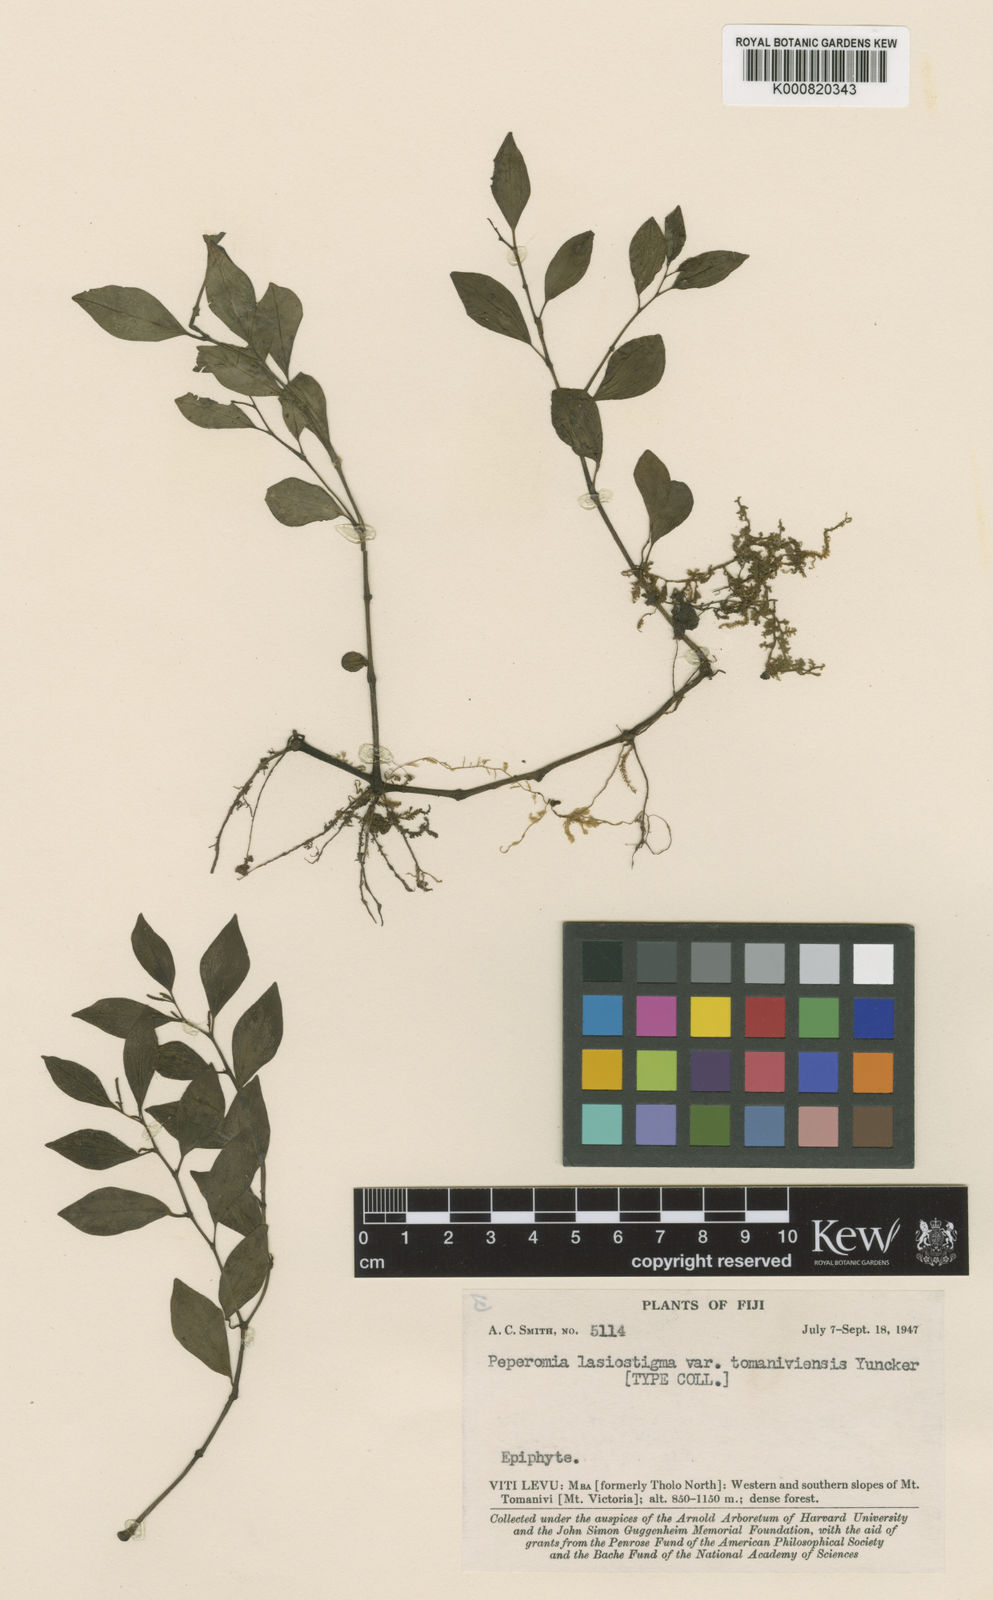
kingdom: Plantae
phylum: Tracheophyta
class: Magnoliopsida
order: Piperales
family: Piperaceae
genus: Peperomia
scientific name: Peperomia lasiostigma
